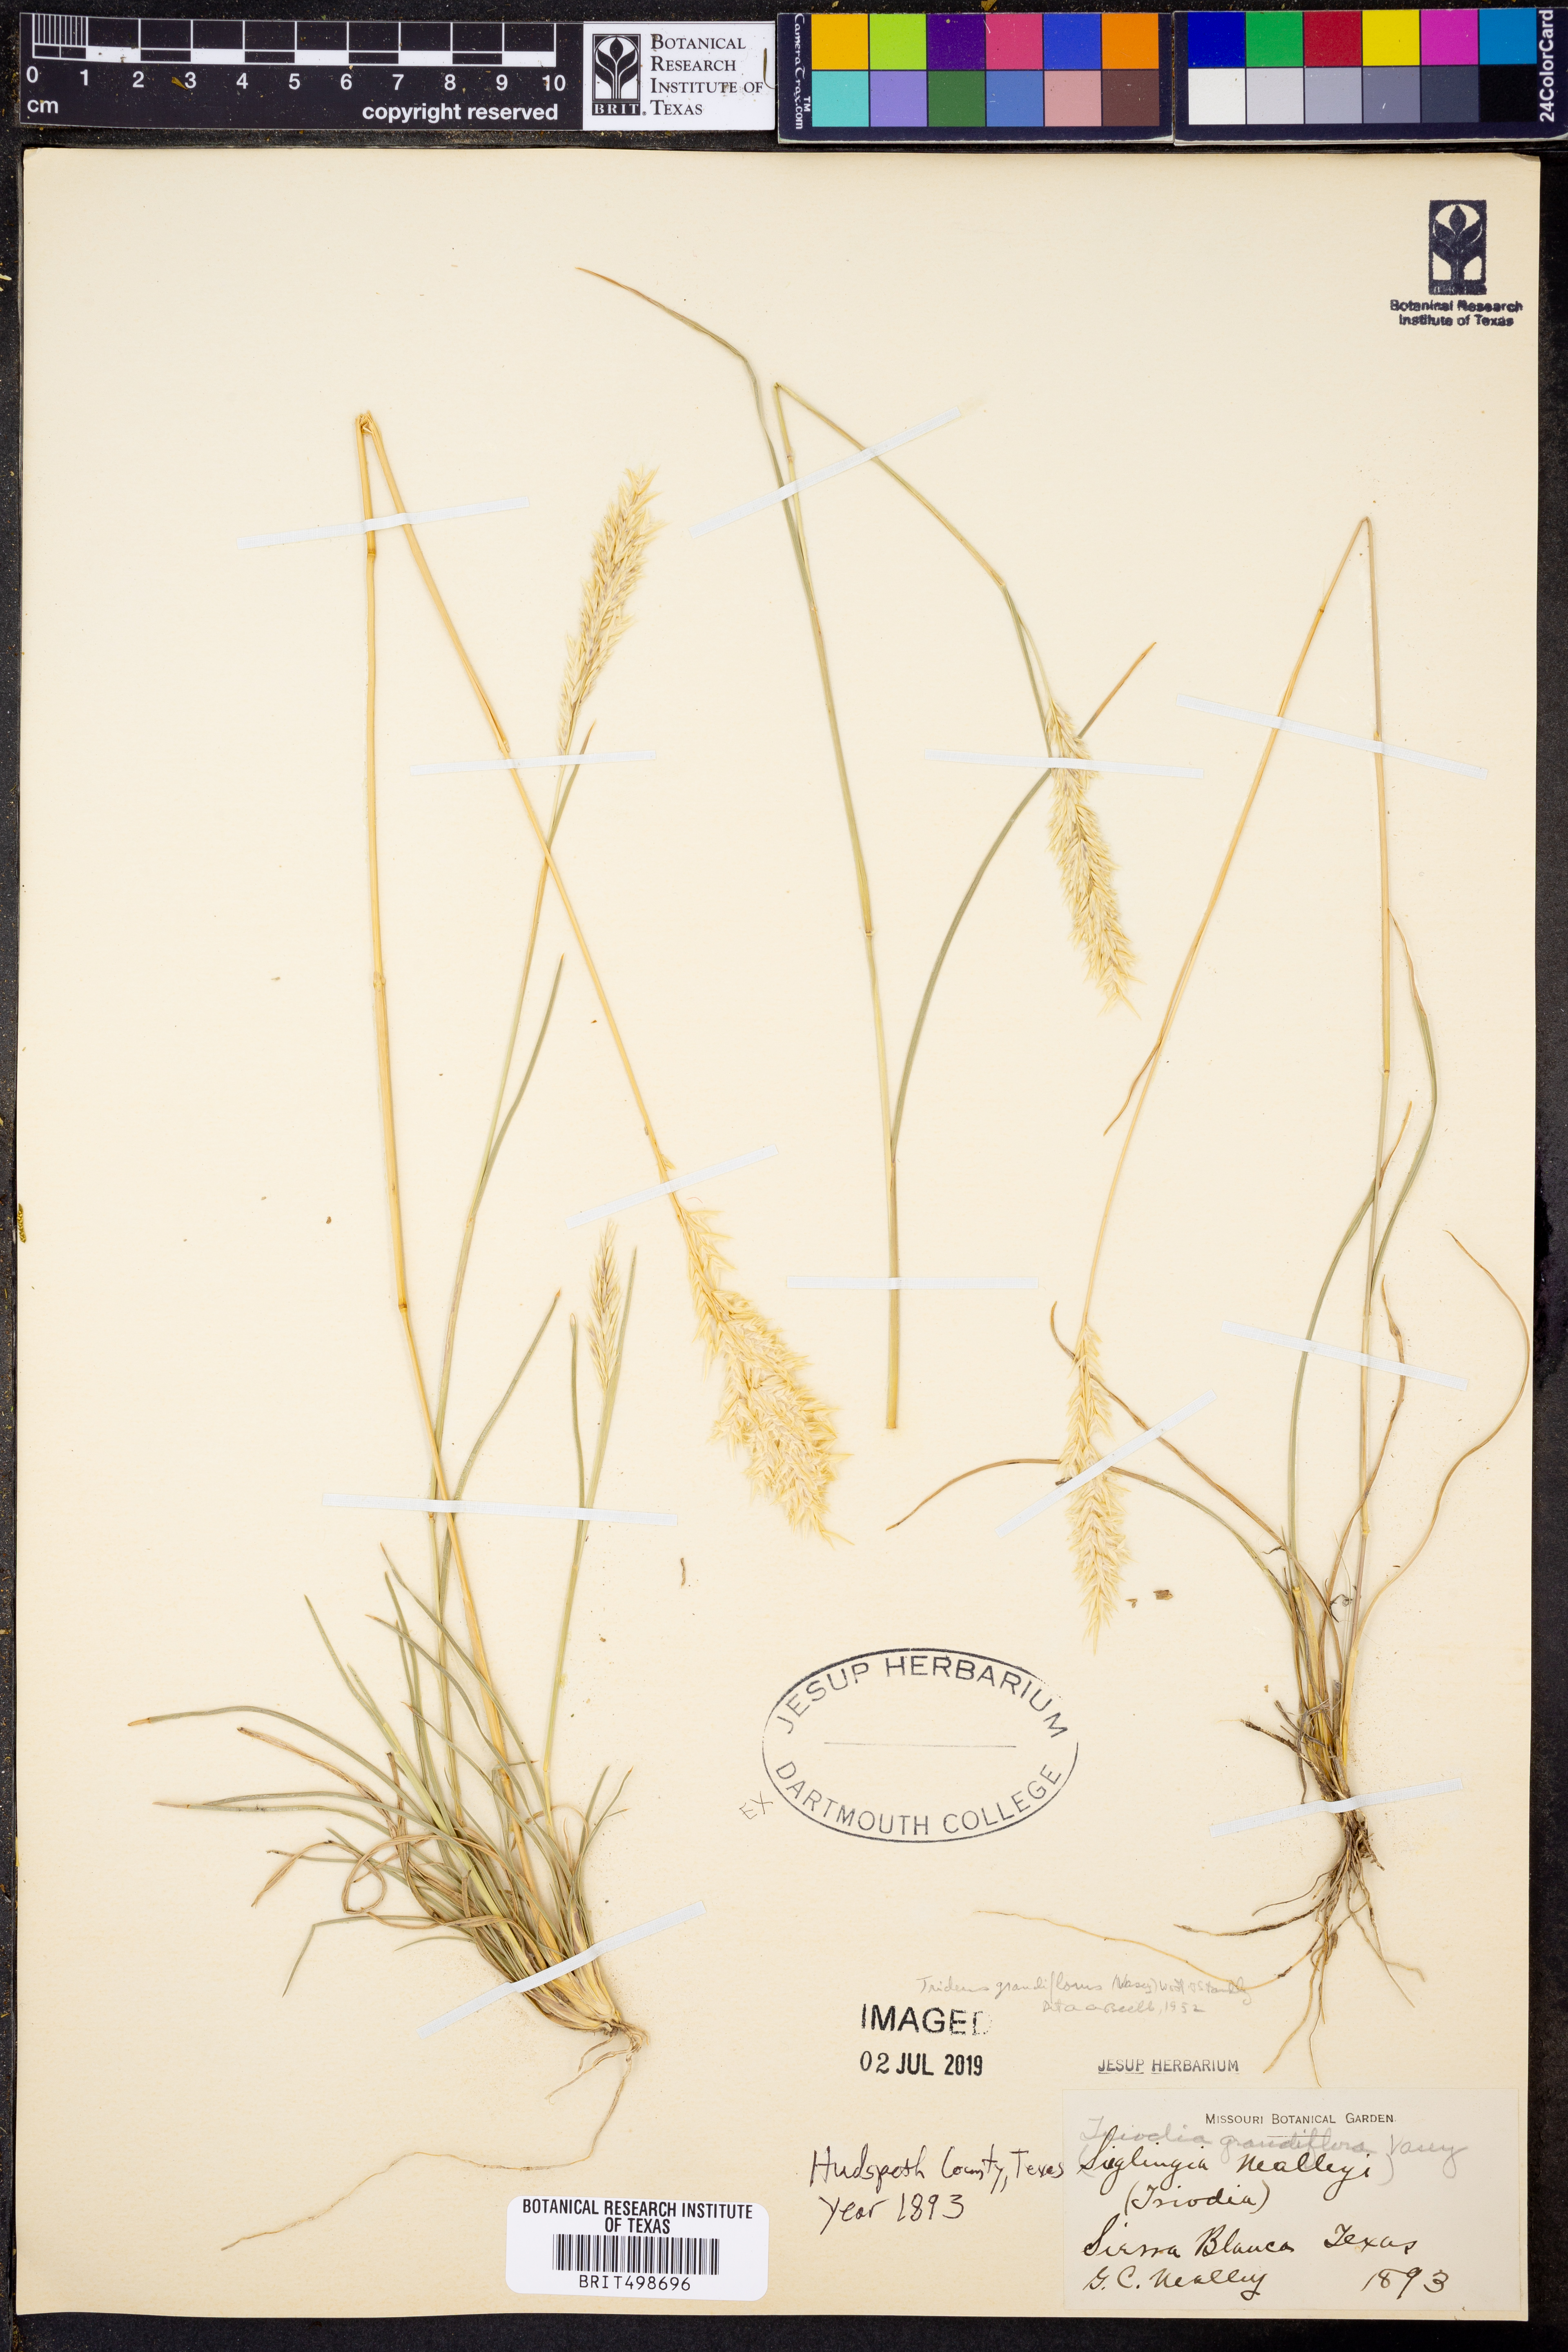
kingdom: Plantae
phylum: Tracheophyta
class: Liliopsida
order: Poales
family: Poaceae
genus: Erioneuron
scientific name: Erioneuron avenaceum
